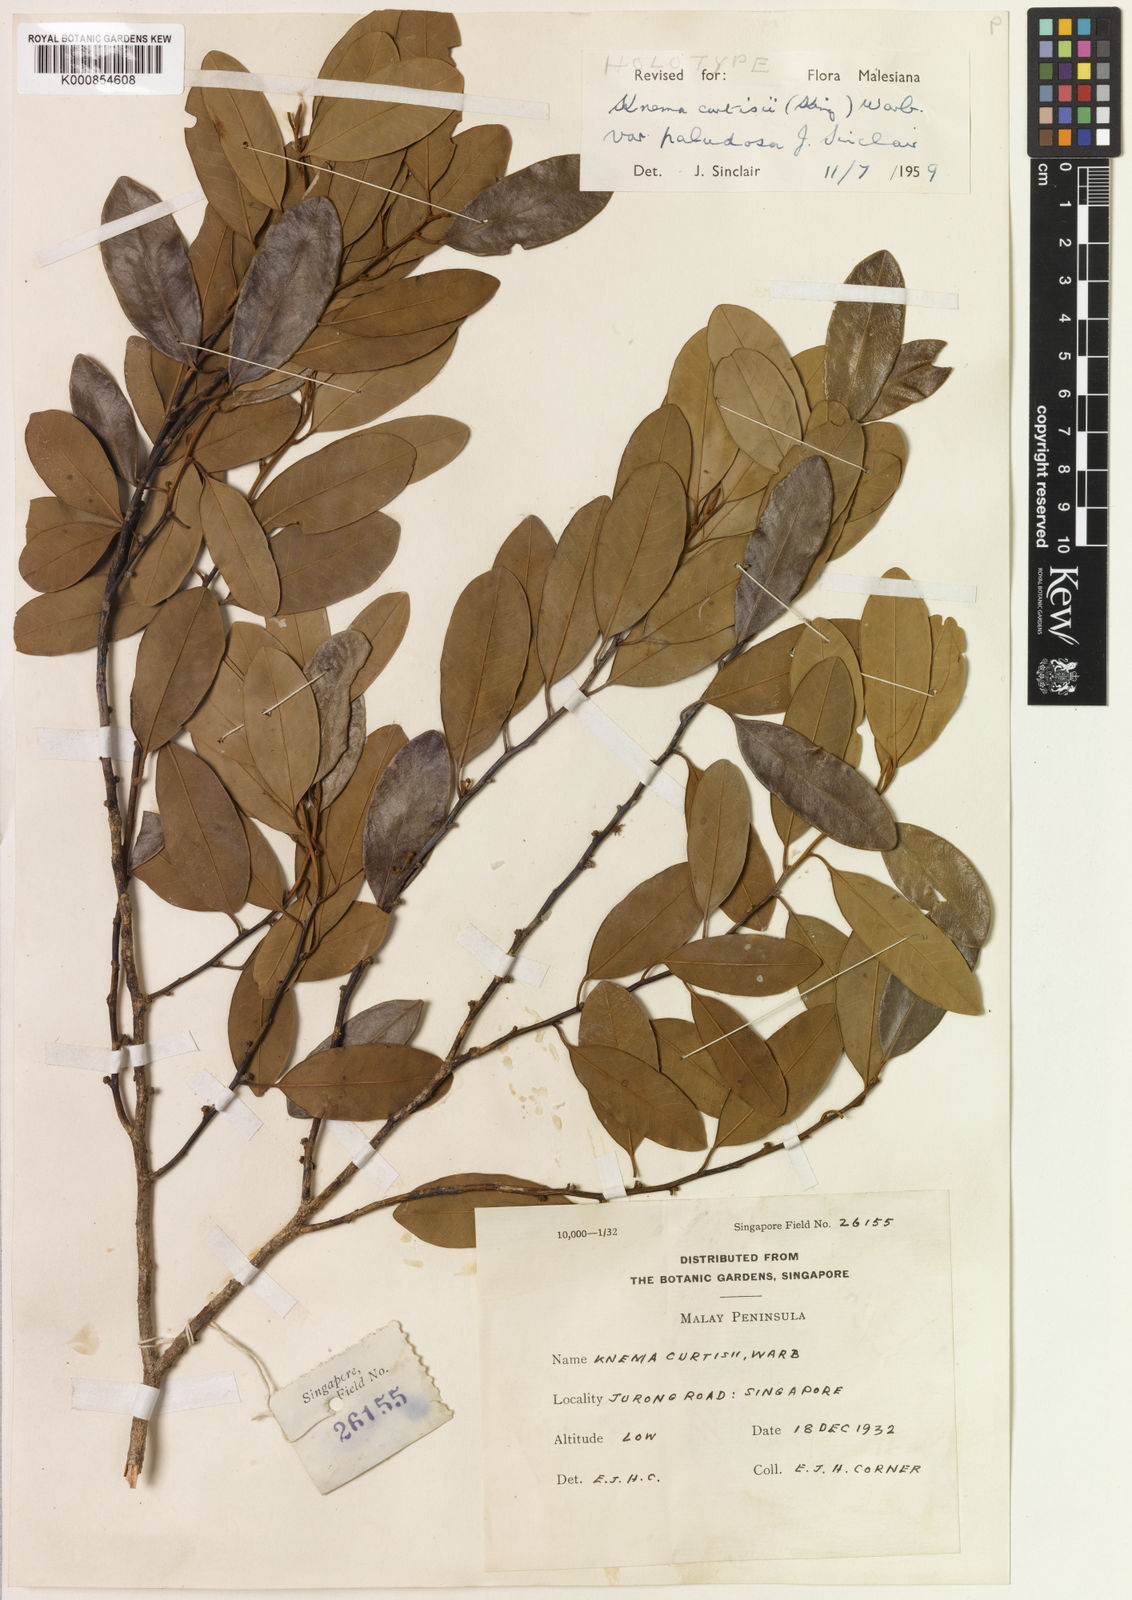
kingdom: Plantae
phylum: Tracheophyta
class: Magnoliopsida
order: Magnoliales
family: Myristicaceae
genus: Knema
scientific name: Knema curtisii
